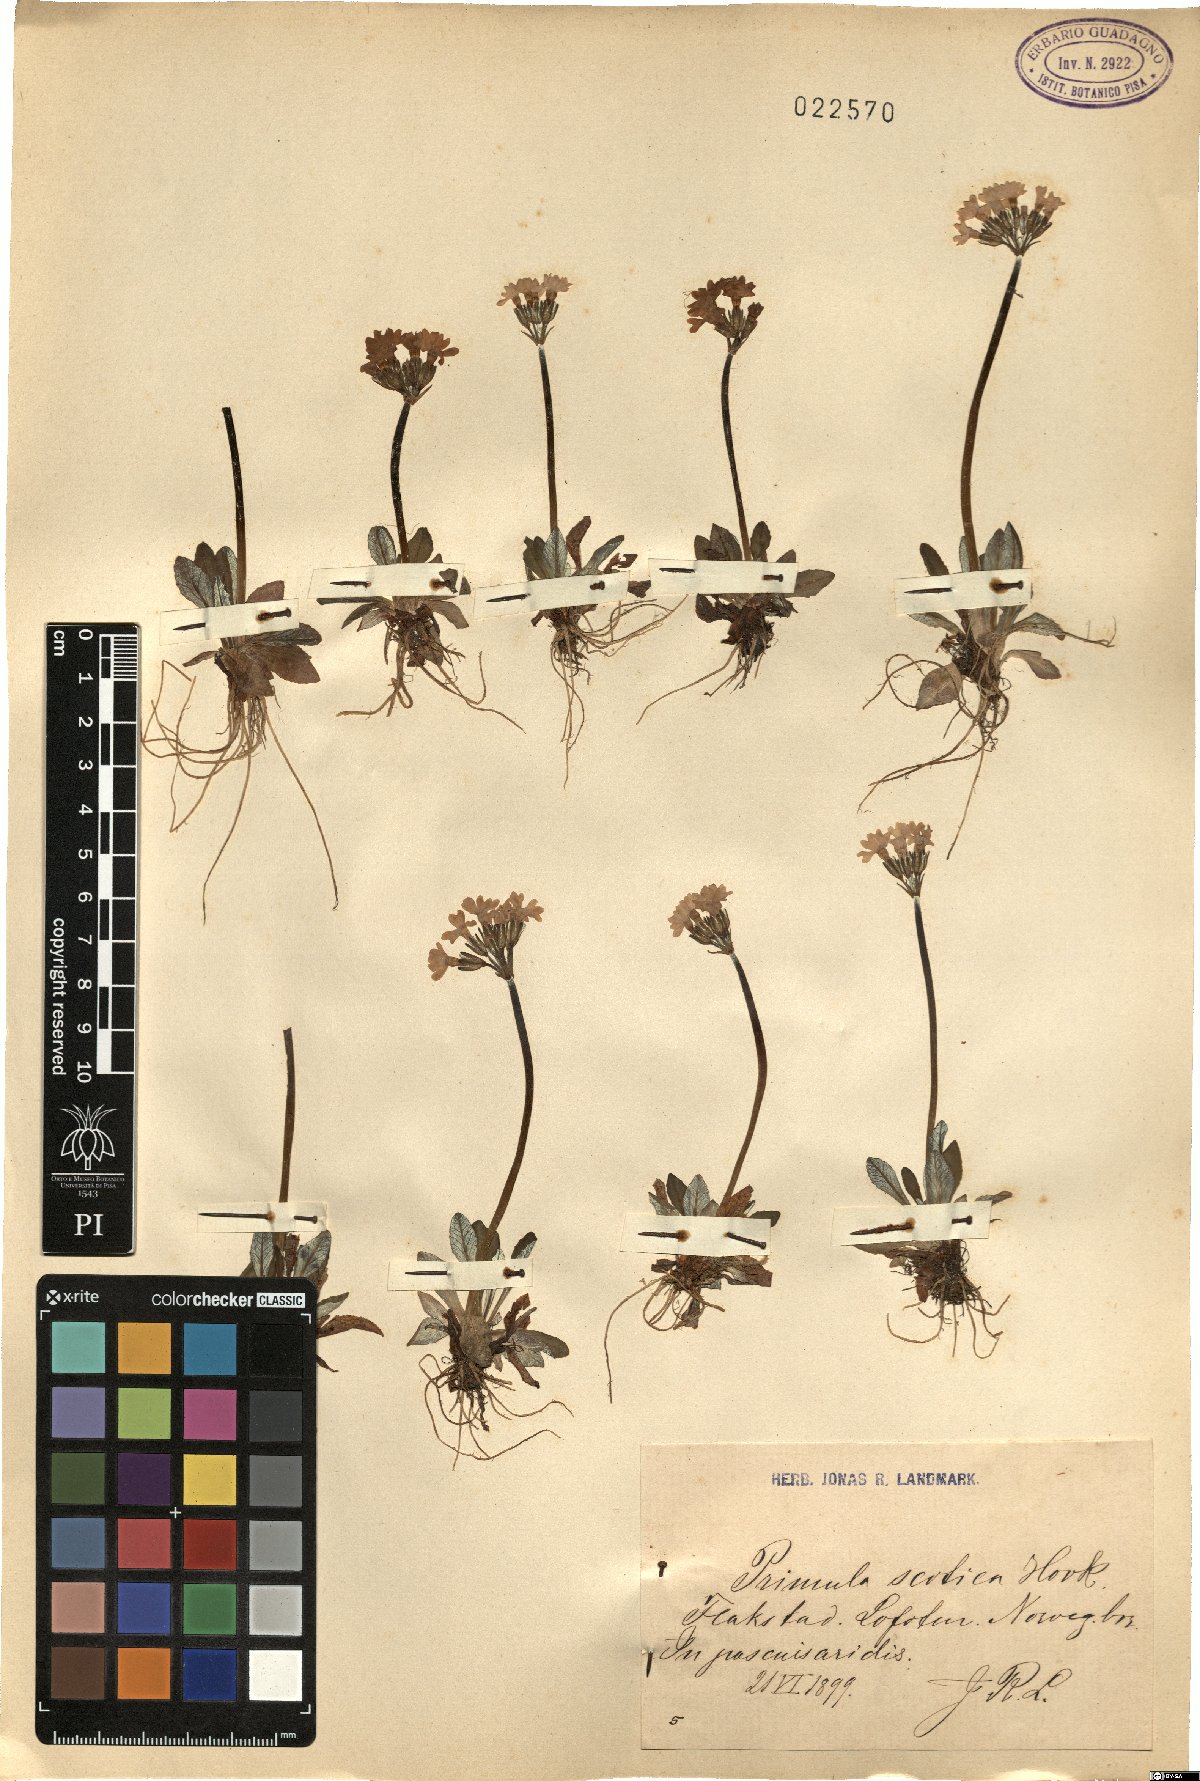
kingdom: Plantae
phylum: Tracheophyta
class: Magnoliopsida
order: Ericales
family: Primulaceae
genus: Primula
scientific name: Primula scotica
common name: Scottish primrose
